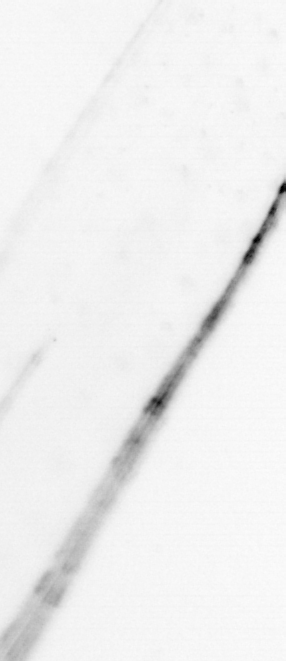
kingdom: Animalia
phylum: Chaetognatha
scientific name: Chaetognatha
